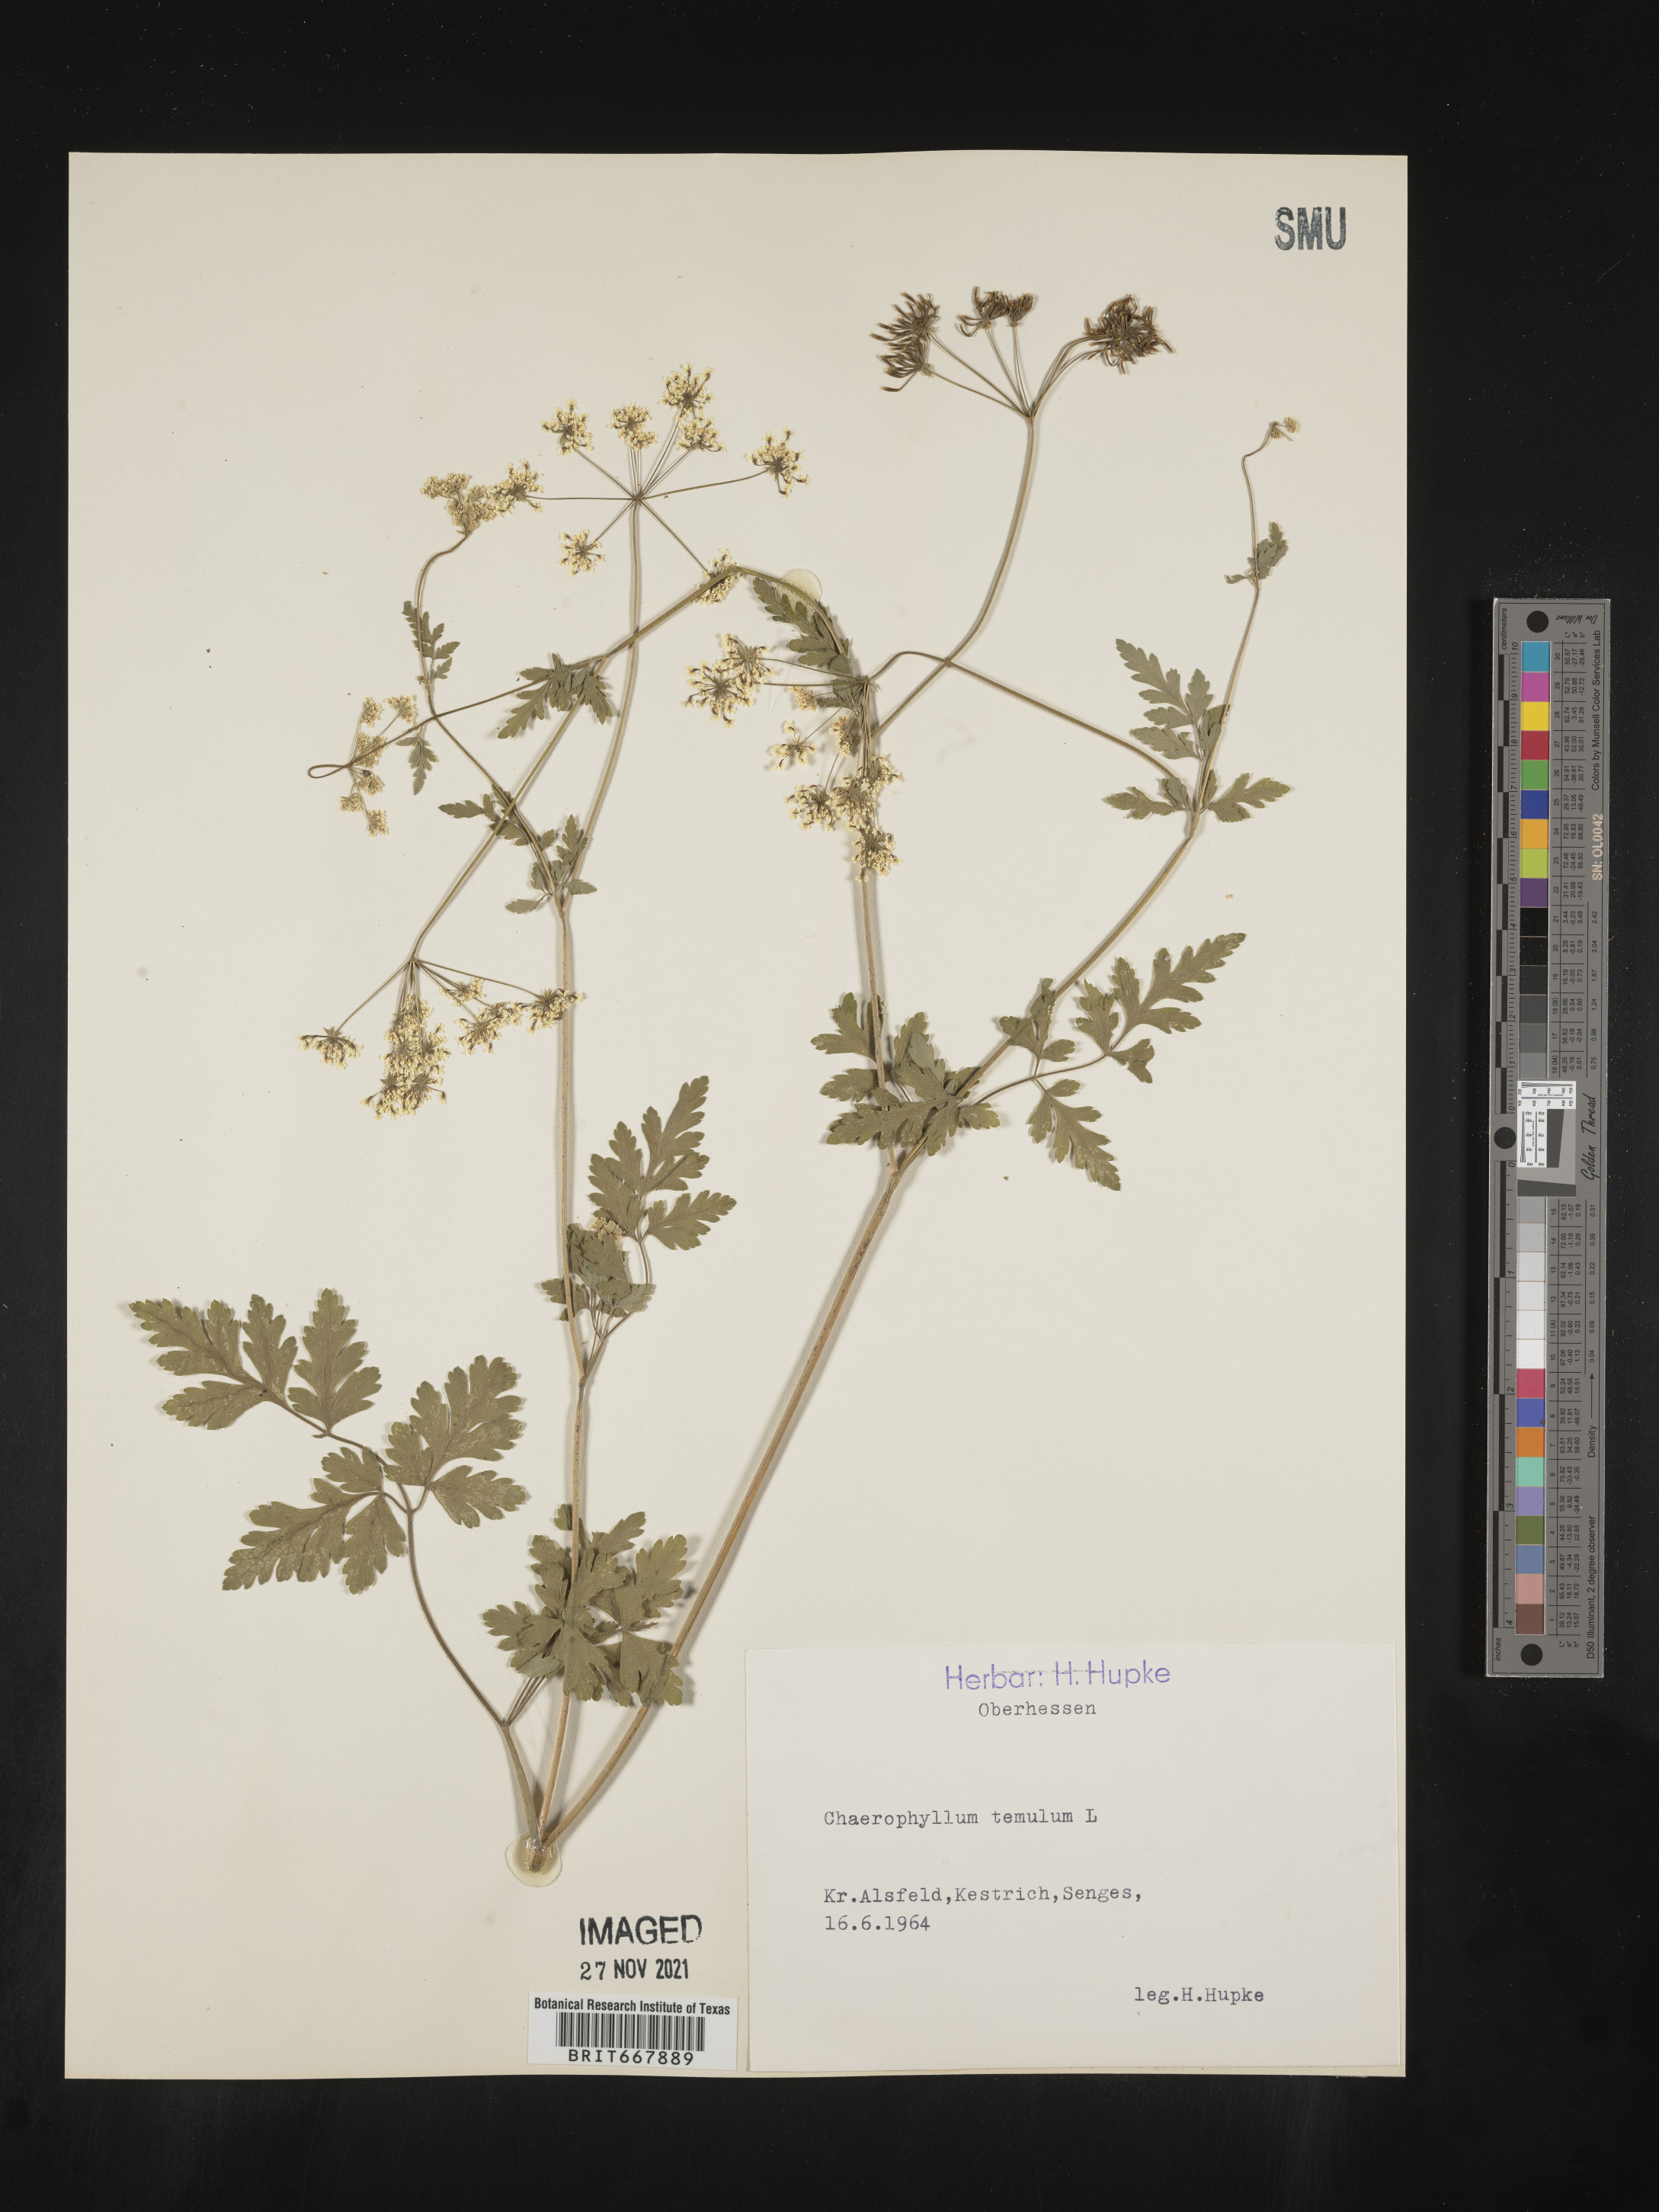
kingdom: Plantae
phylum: Tracheophyta
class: Magnoliopsida
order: Apiales
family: Apiaceae
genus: Chaerophyllum
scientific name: Chaerophyllum
